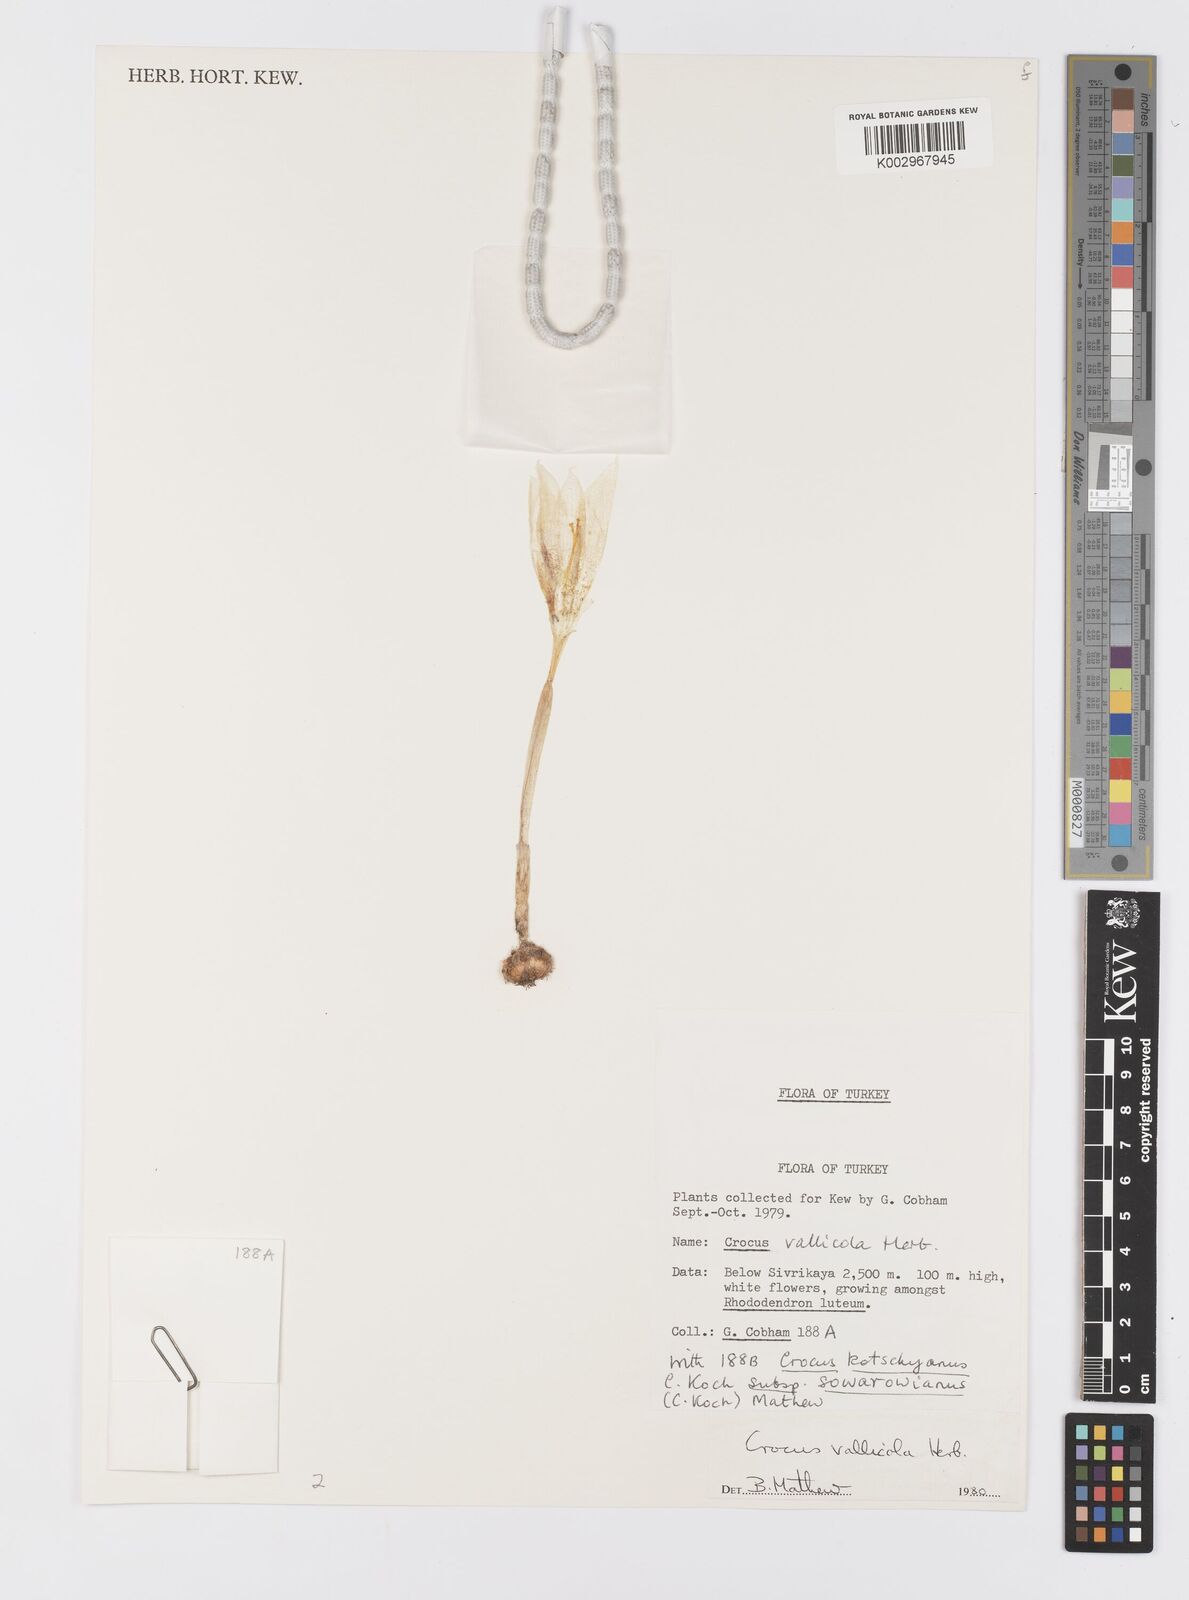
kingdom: Plantae
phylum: Tracheophyta
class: Liliopsida
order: Asparagales
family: Iridaceae
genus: Crocus
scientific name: Crocus vallicola
